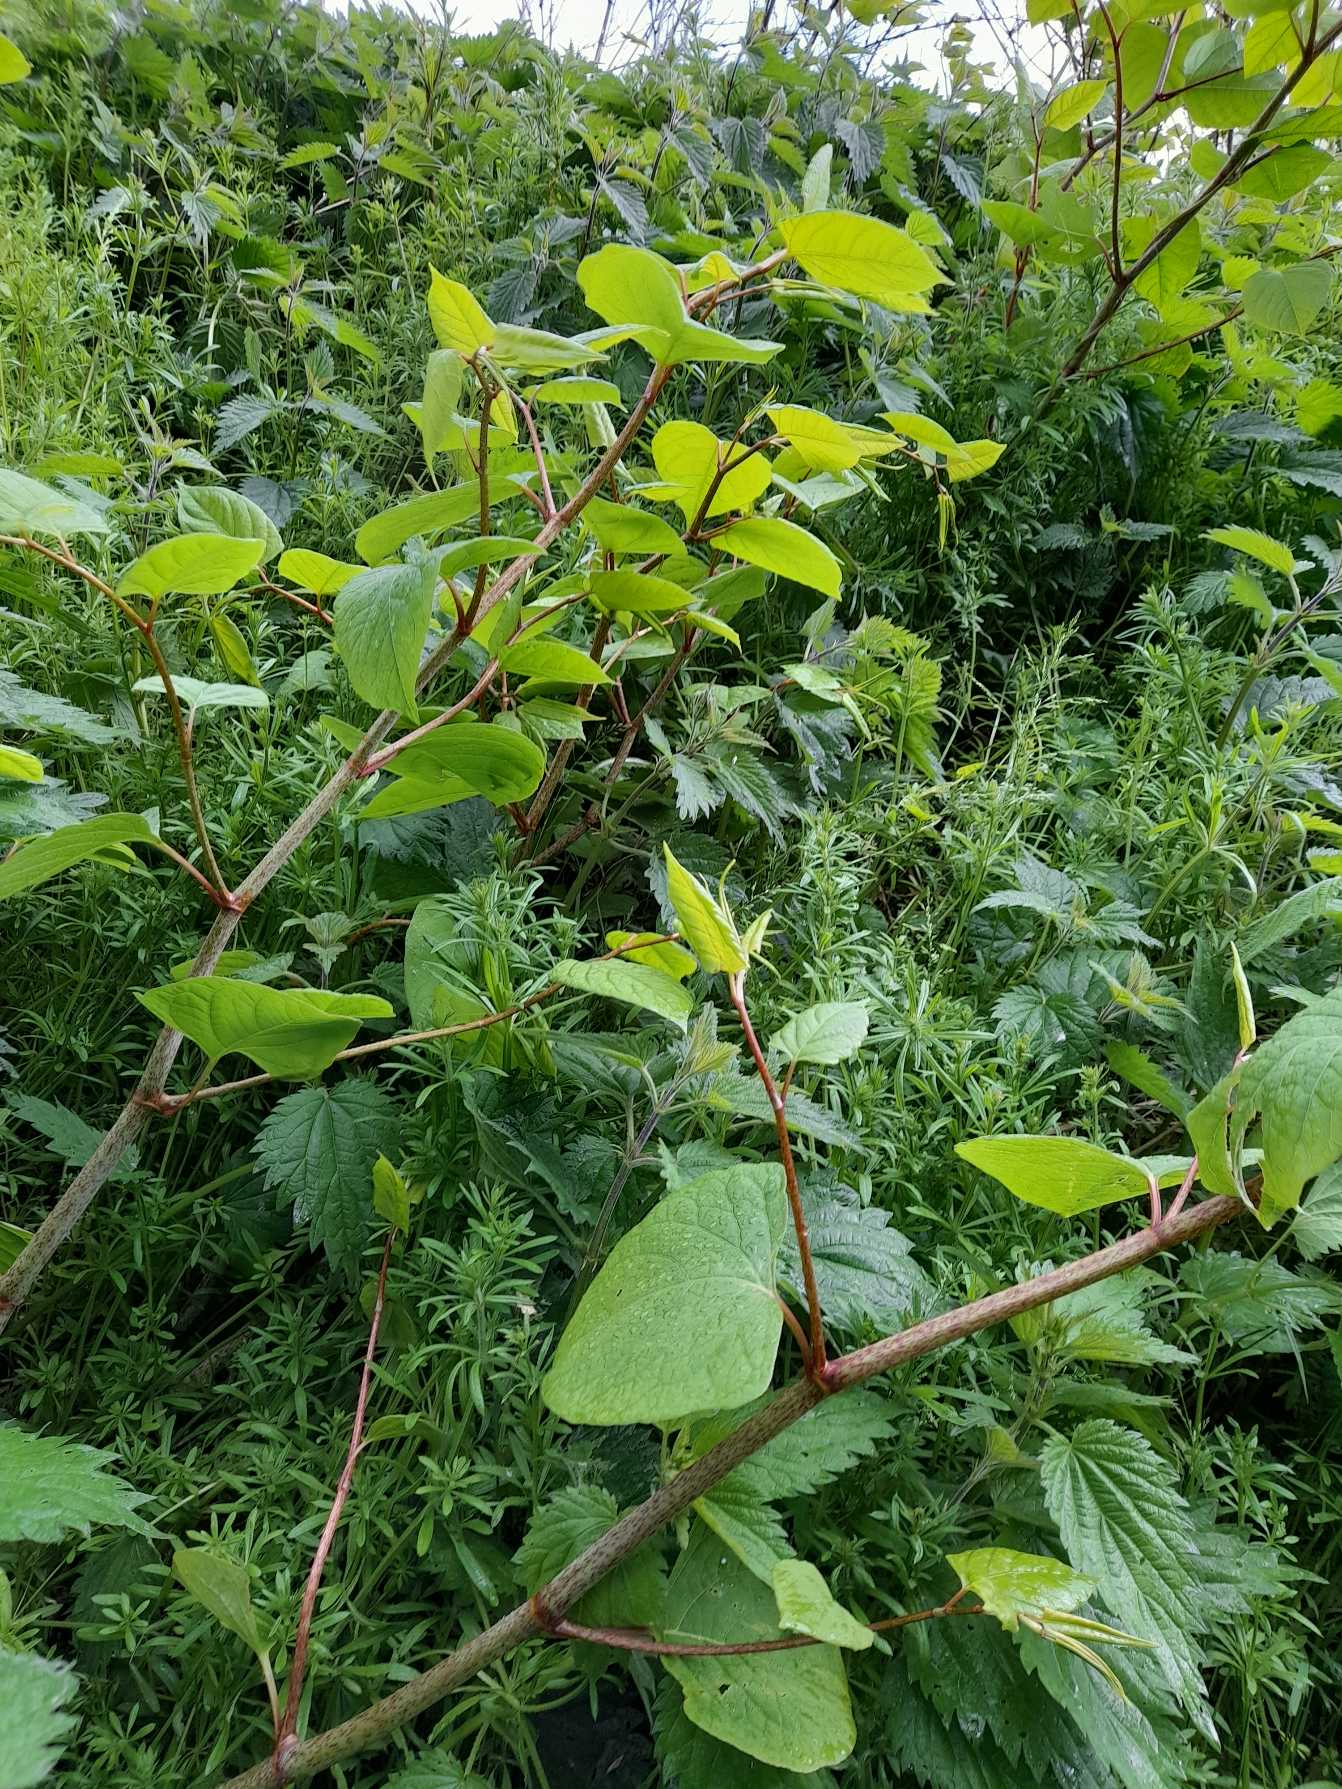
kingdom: Plantae
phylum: Tracheophyta
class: Magnoliopsida
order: Caryophyllales
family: Polygonaceae
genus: Reynoutria
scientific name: Reynoutria bohemica
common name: Hybrid-pileurt
